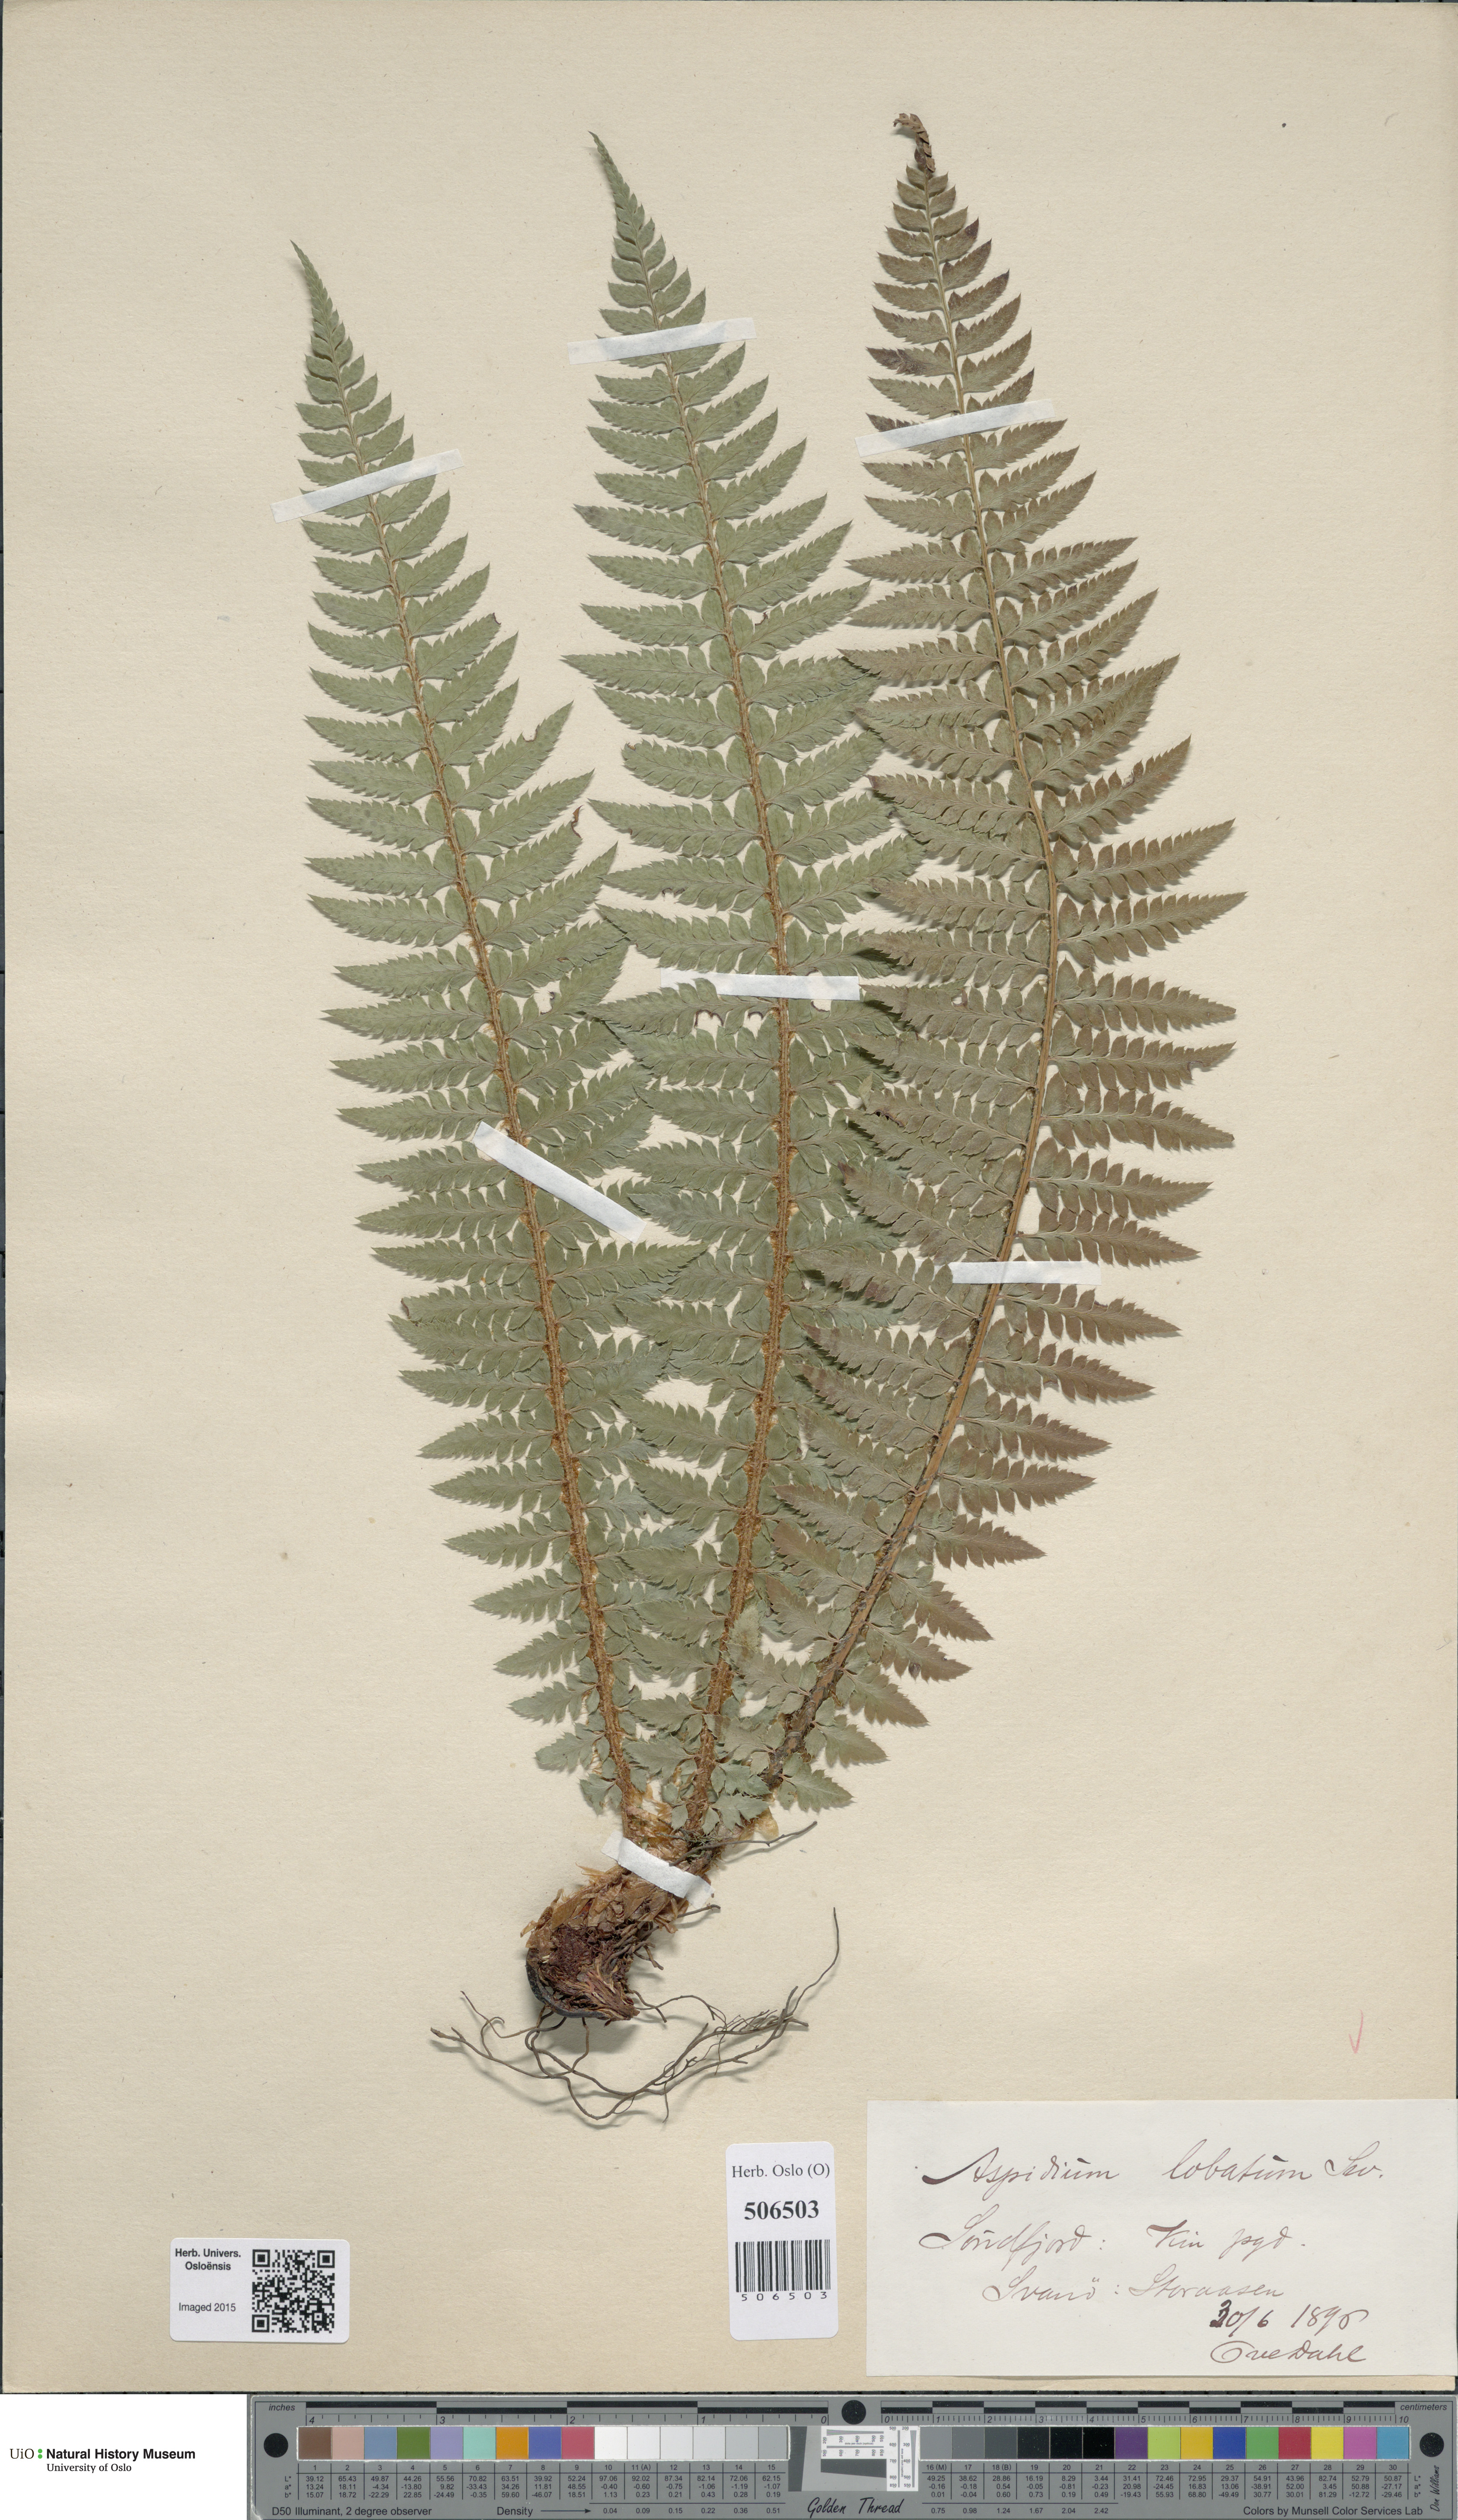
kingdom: Plantae
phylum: Tracheophyta
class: Polypodiopsida
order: Polypodiales
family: Dryopteridaceae
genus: Polystichum
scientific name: Polystichum aculeatum
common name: Hard shield-fern
